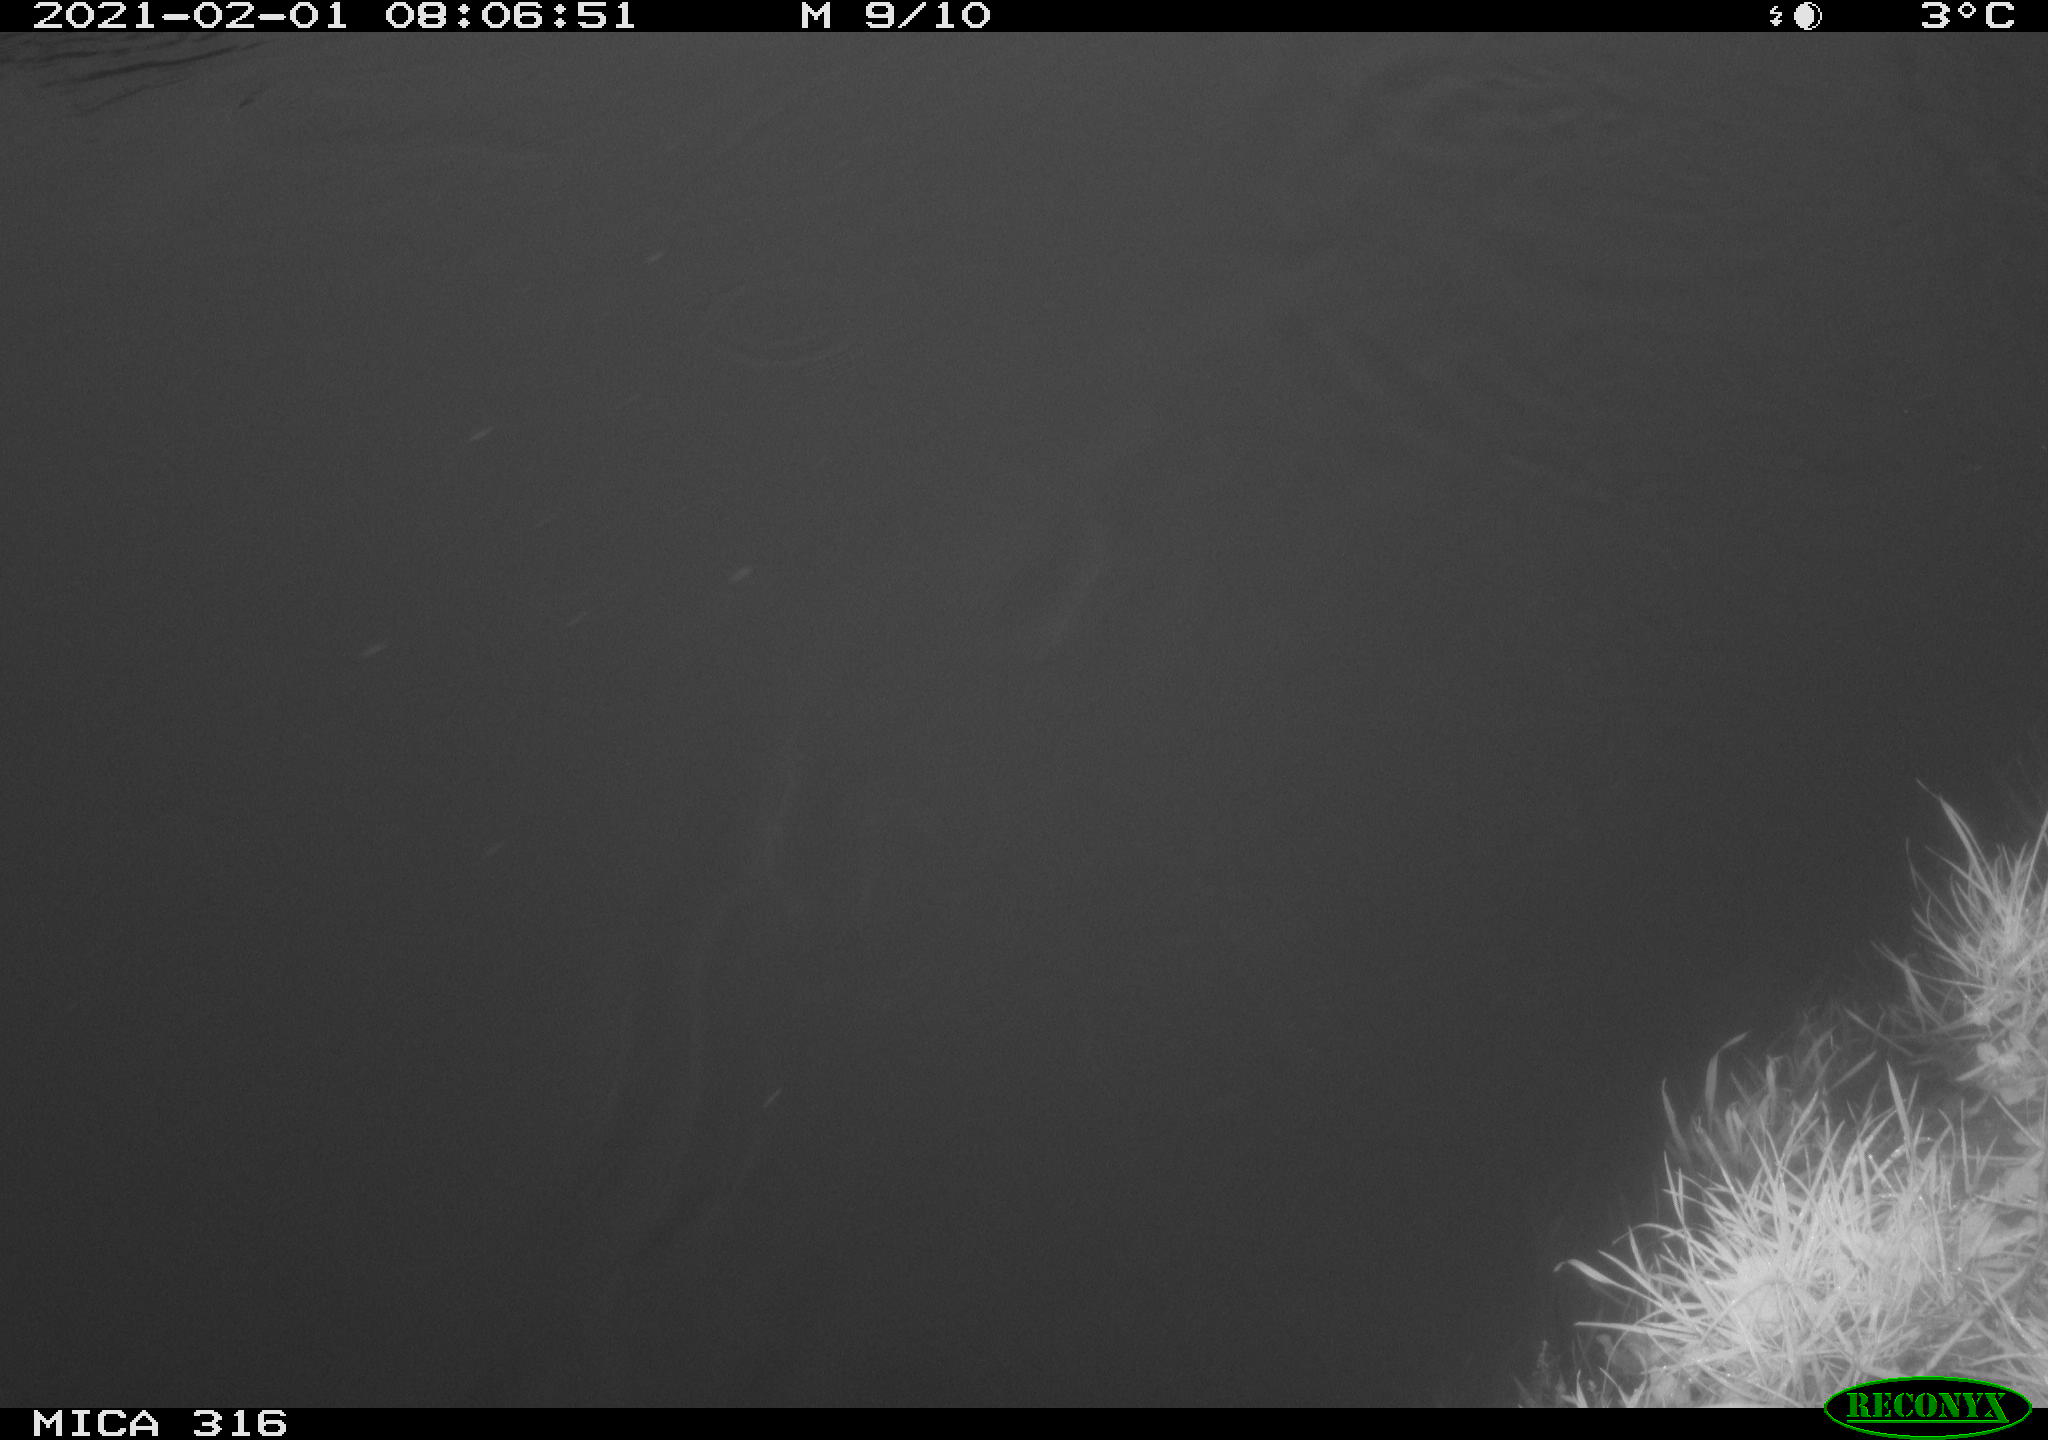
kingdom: Animalia
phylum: Chordata
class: Aves
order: Gruiformes
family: Rallidae
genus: Gallinula
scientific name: Gallinula chloropus
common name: Common moorhen
